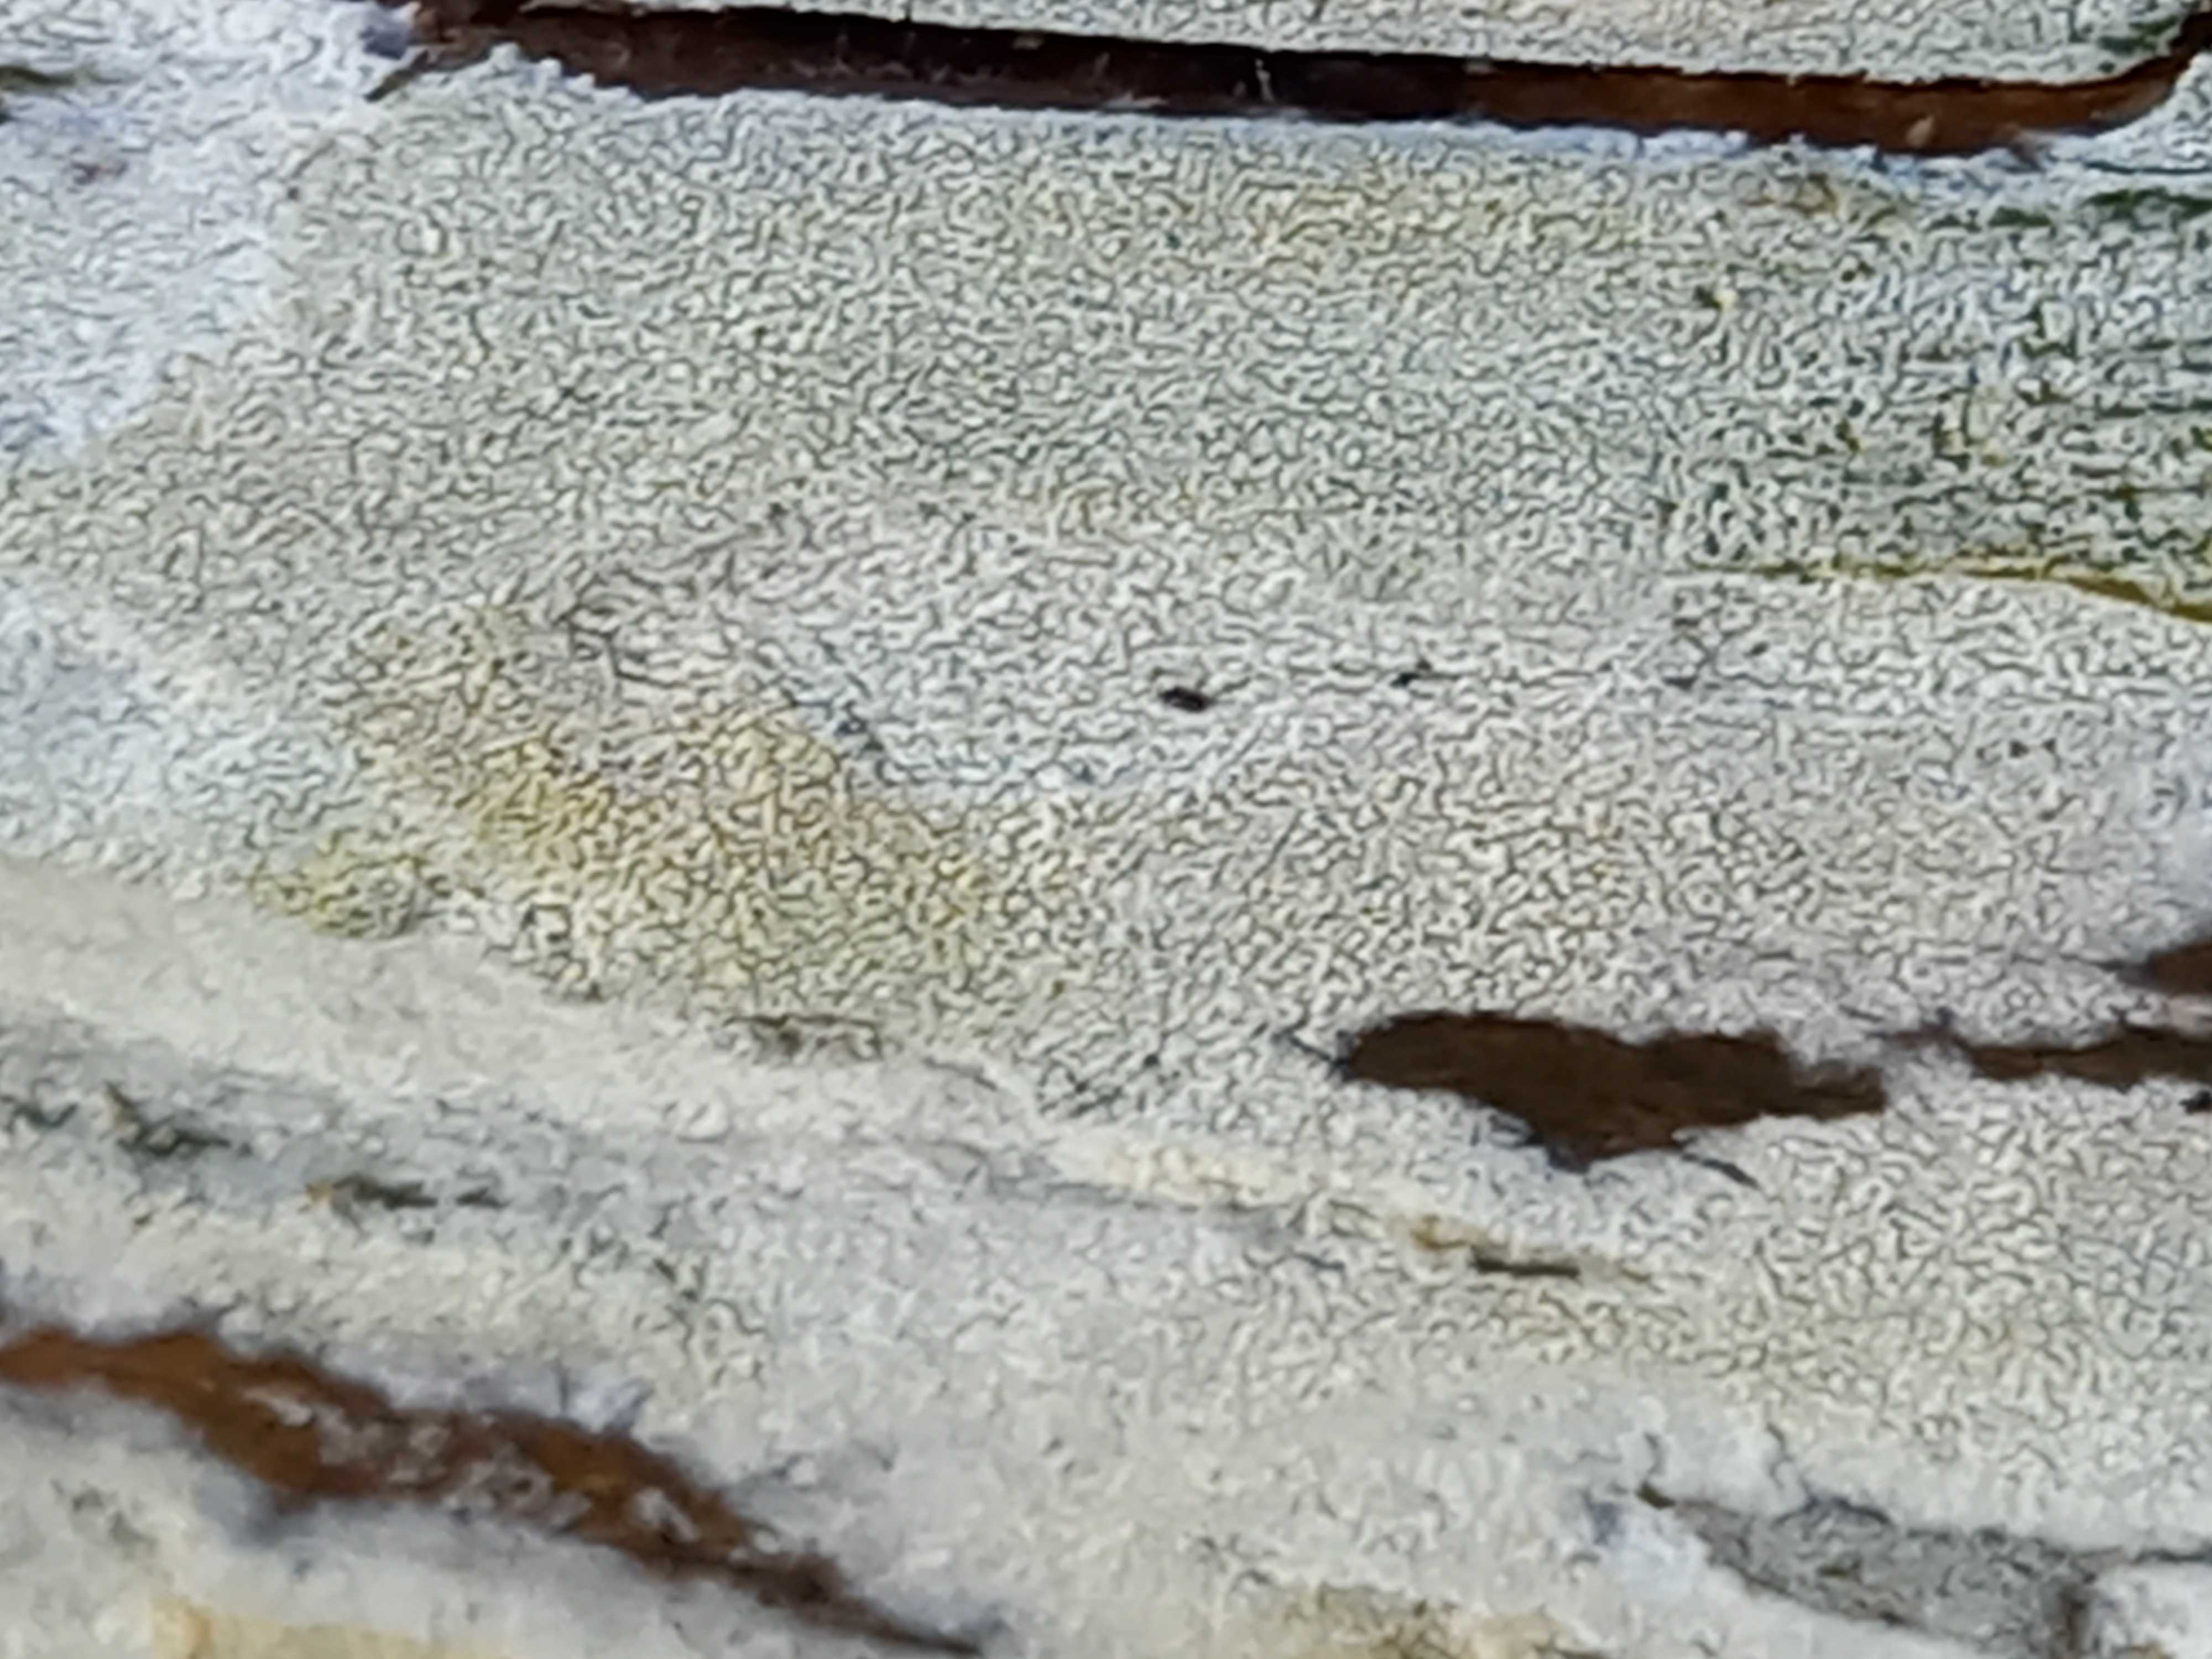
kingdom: Fungi
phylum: Basidiomycota
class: Agaricomycetes
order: Corticiales
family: Corticiaceae
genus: Lyomyces
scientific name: Lyomyces sambuci
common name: almindelig hyldehinde
